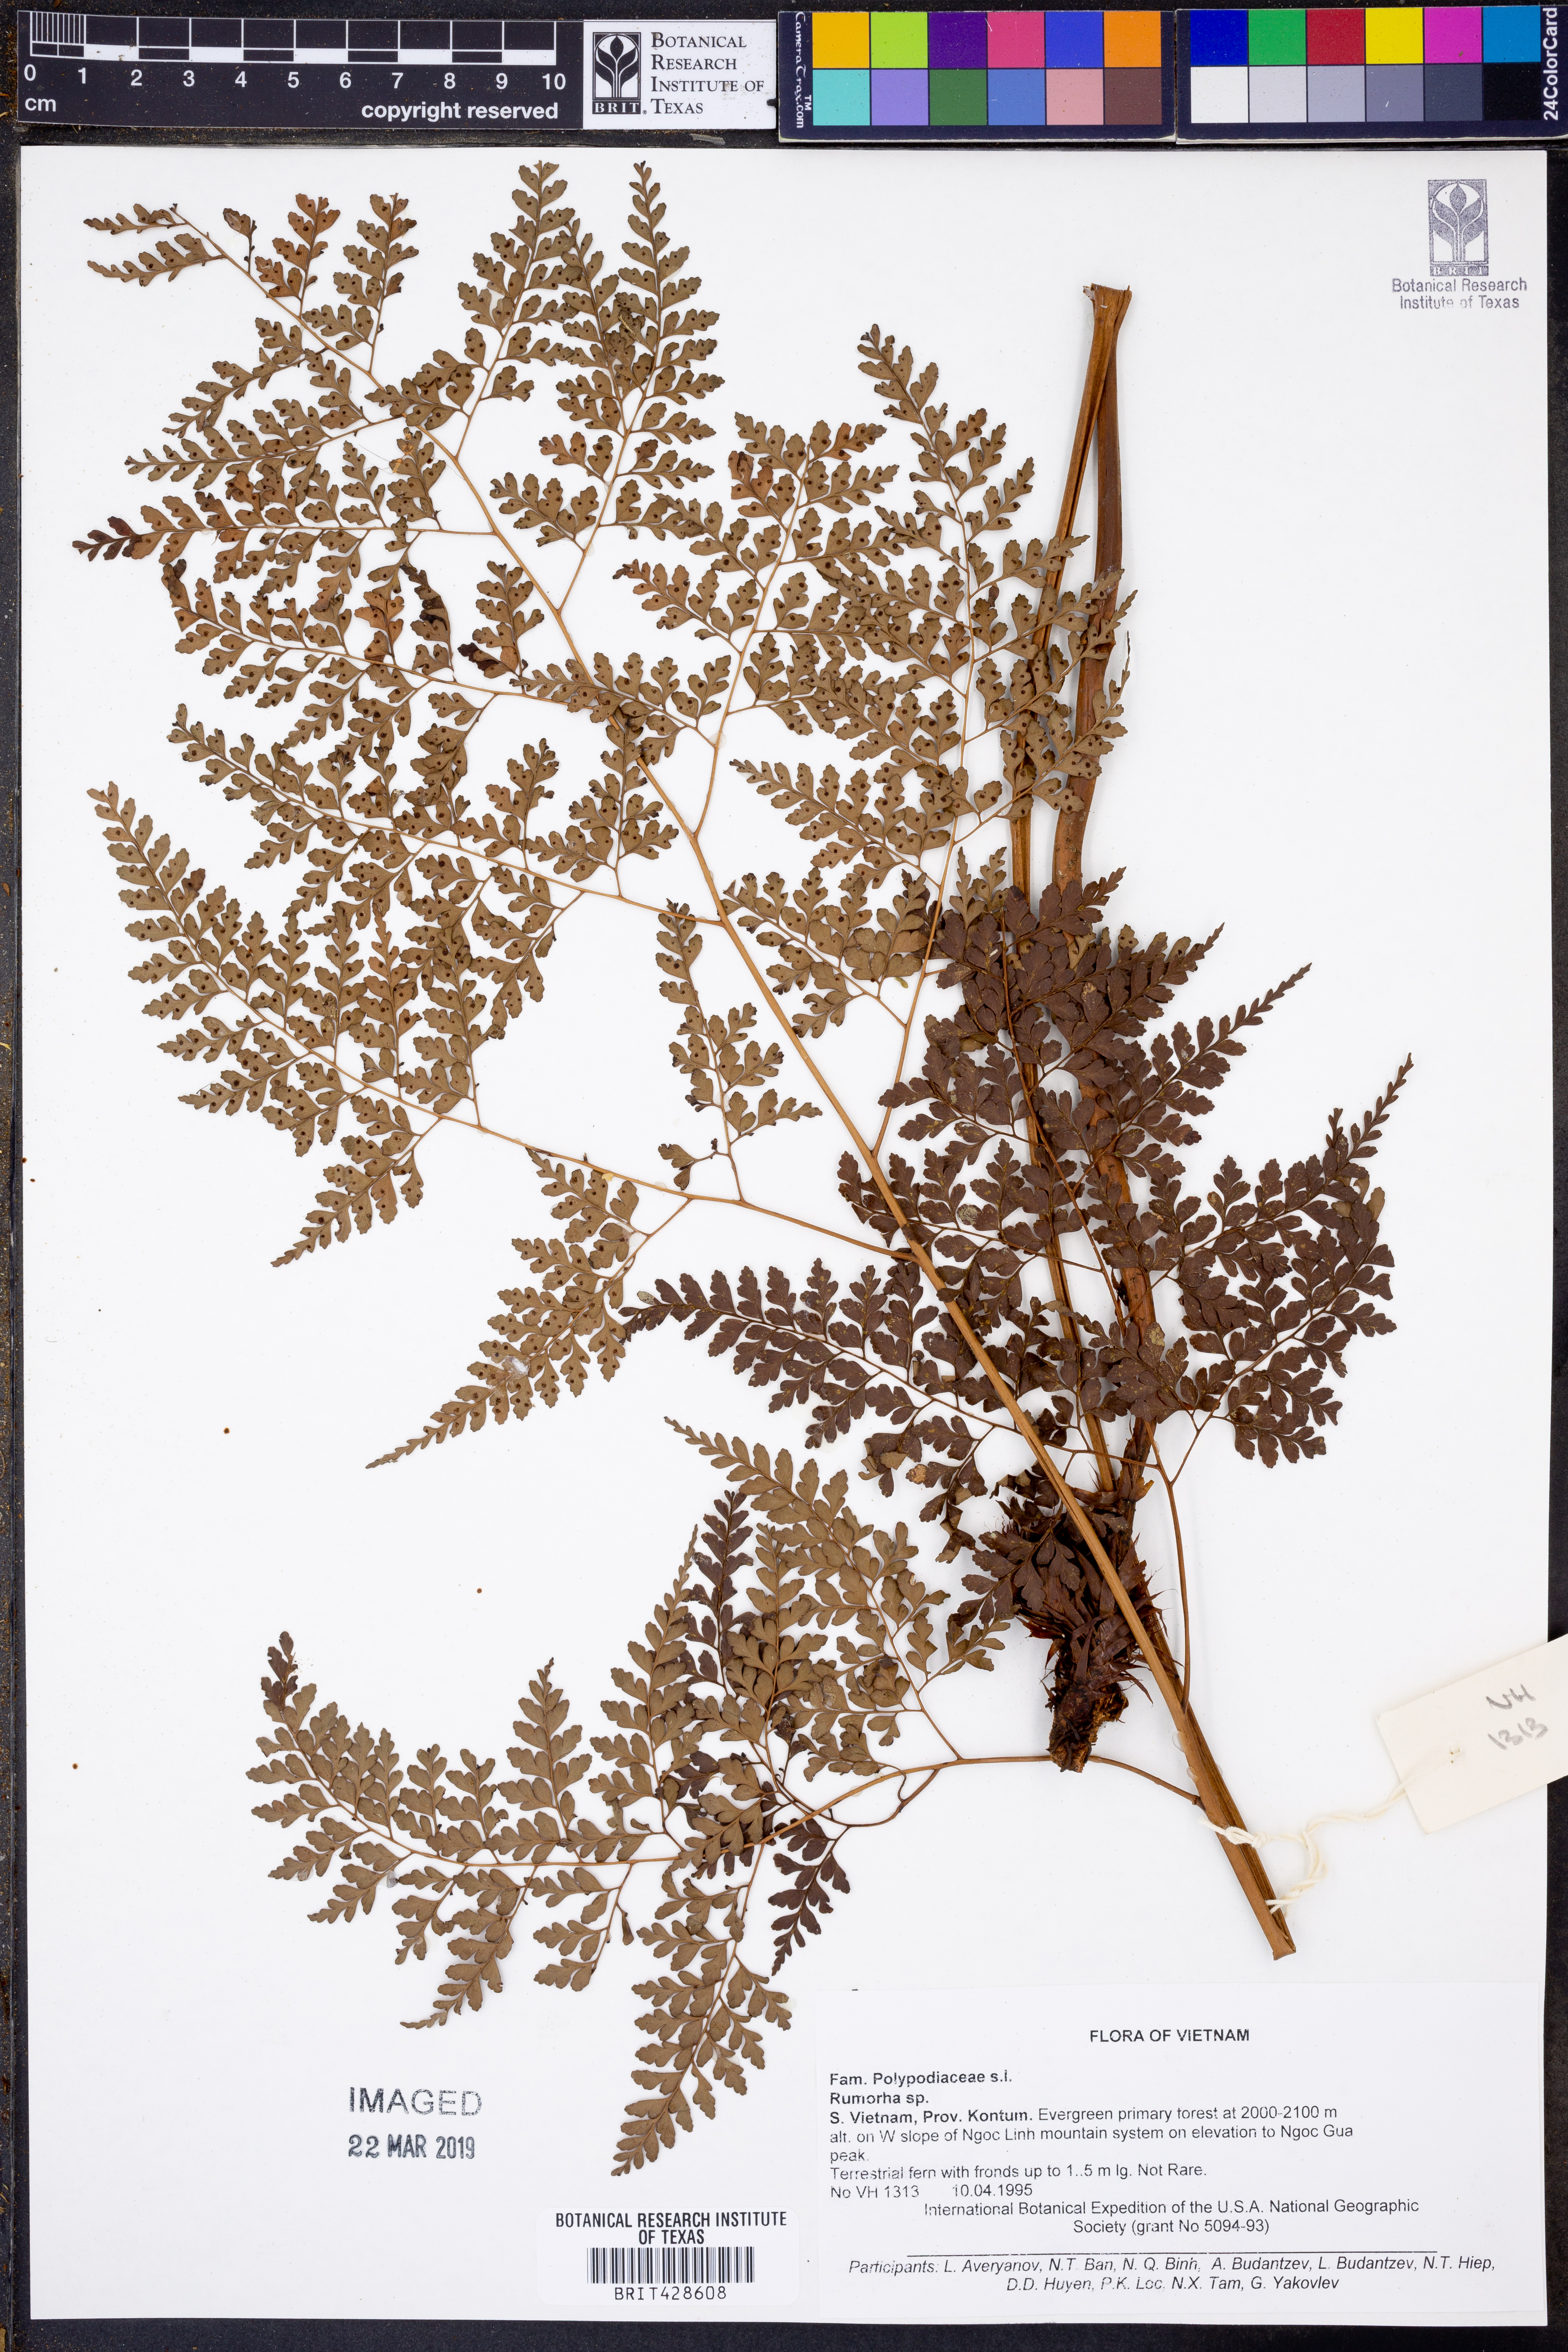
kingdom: Plantae
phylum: Tracheophyta
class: Polypodiopsida
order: Polypodiales
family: Dryopteridaceae
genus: Rumohra
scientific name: Rumohra
